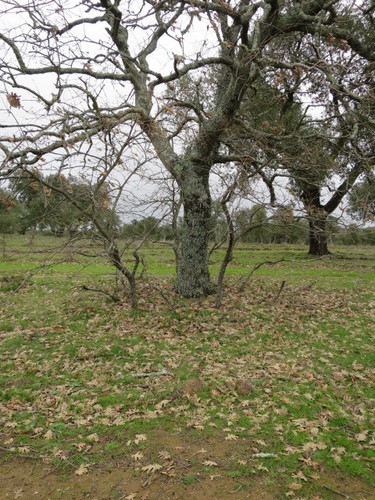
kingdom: Plantae
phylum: Tracheophyta
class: Magnoliopsida
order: Fagales
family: Fagaceae
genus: Quercus
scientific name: Quercus pyrenaica
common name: Pyrenean oak
